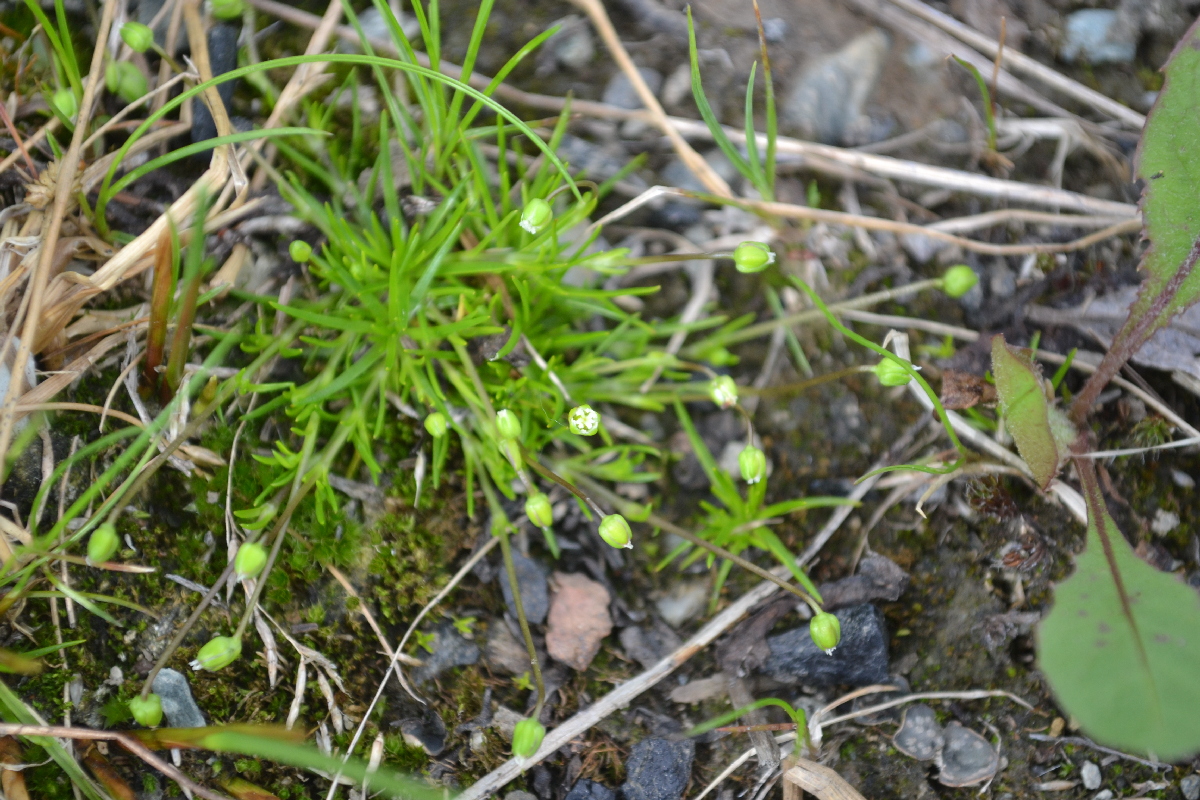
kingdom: Plantae
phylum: Tracheophyta
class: Magnoliopsida
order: Caryophyllales
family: Caryophyllaceae
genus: Sagina
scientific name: Sagina nivalis
